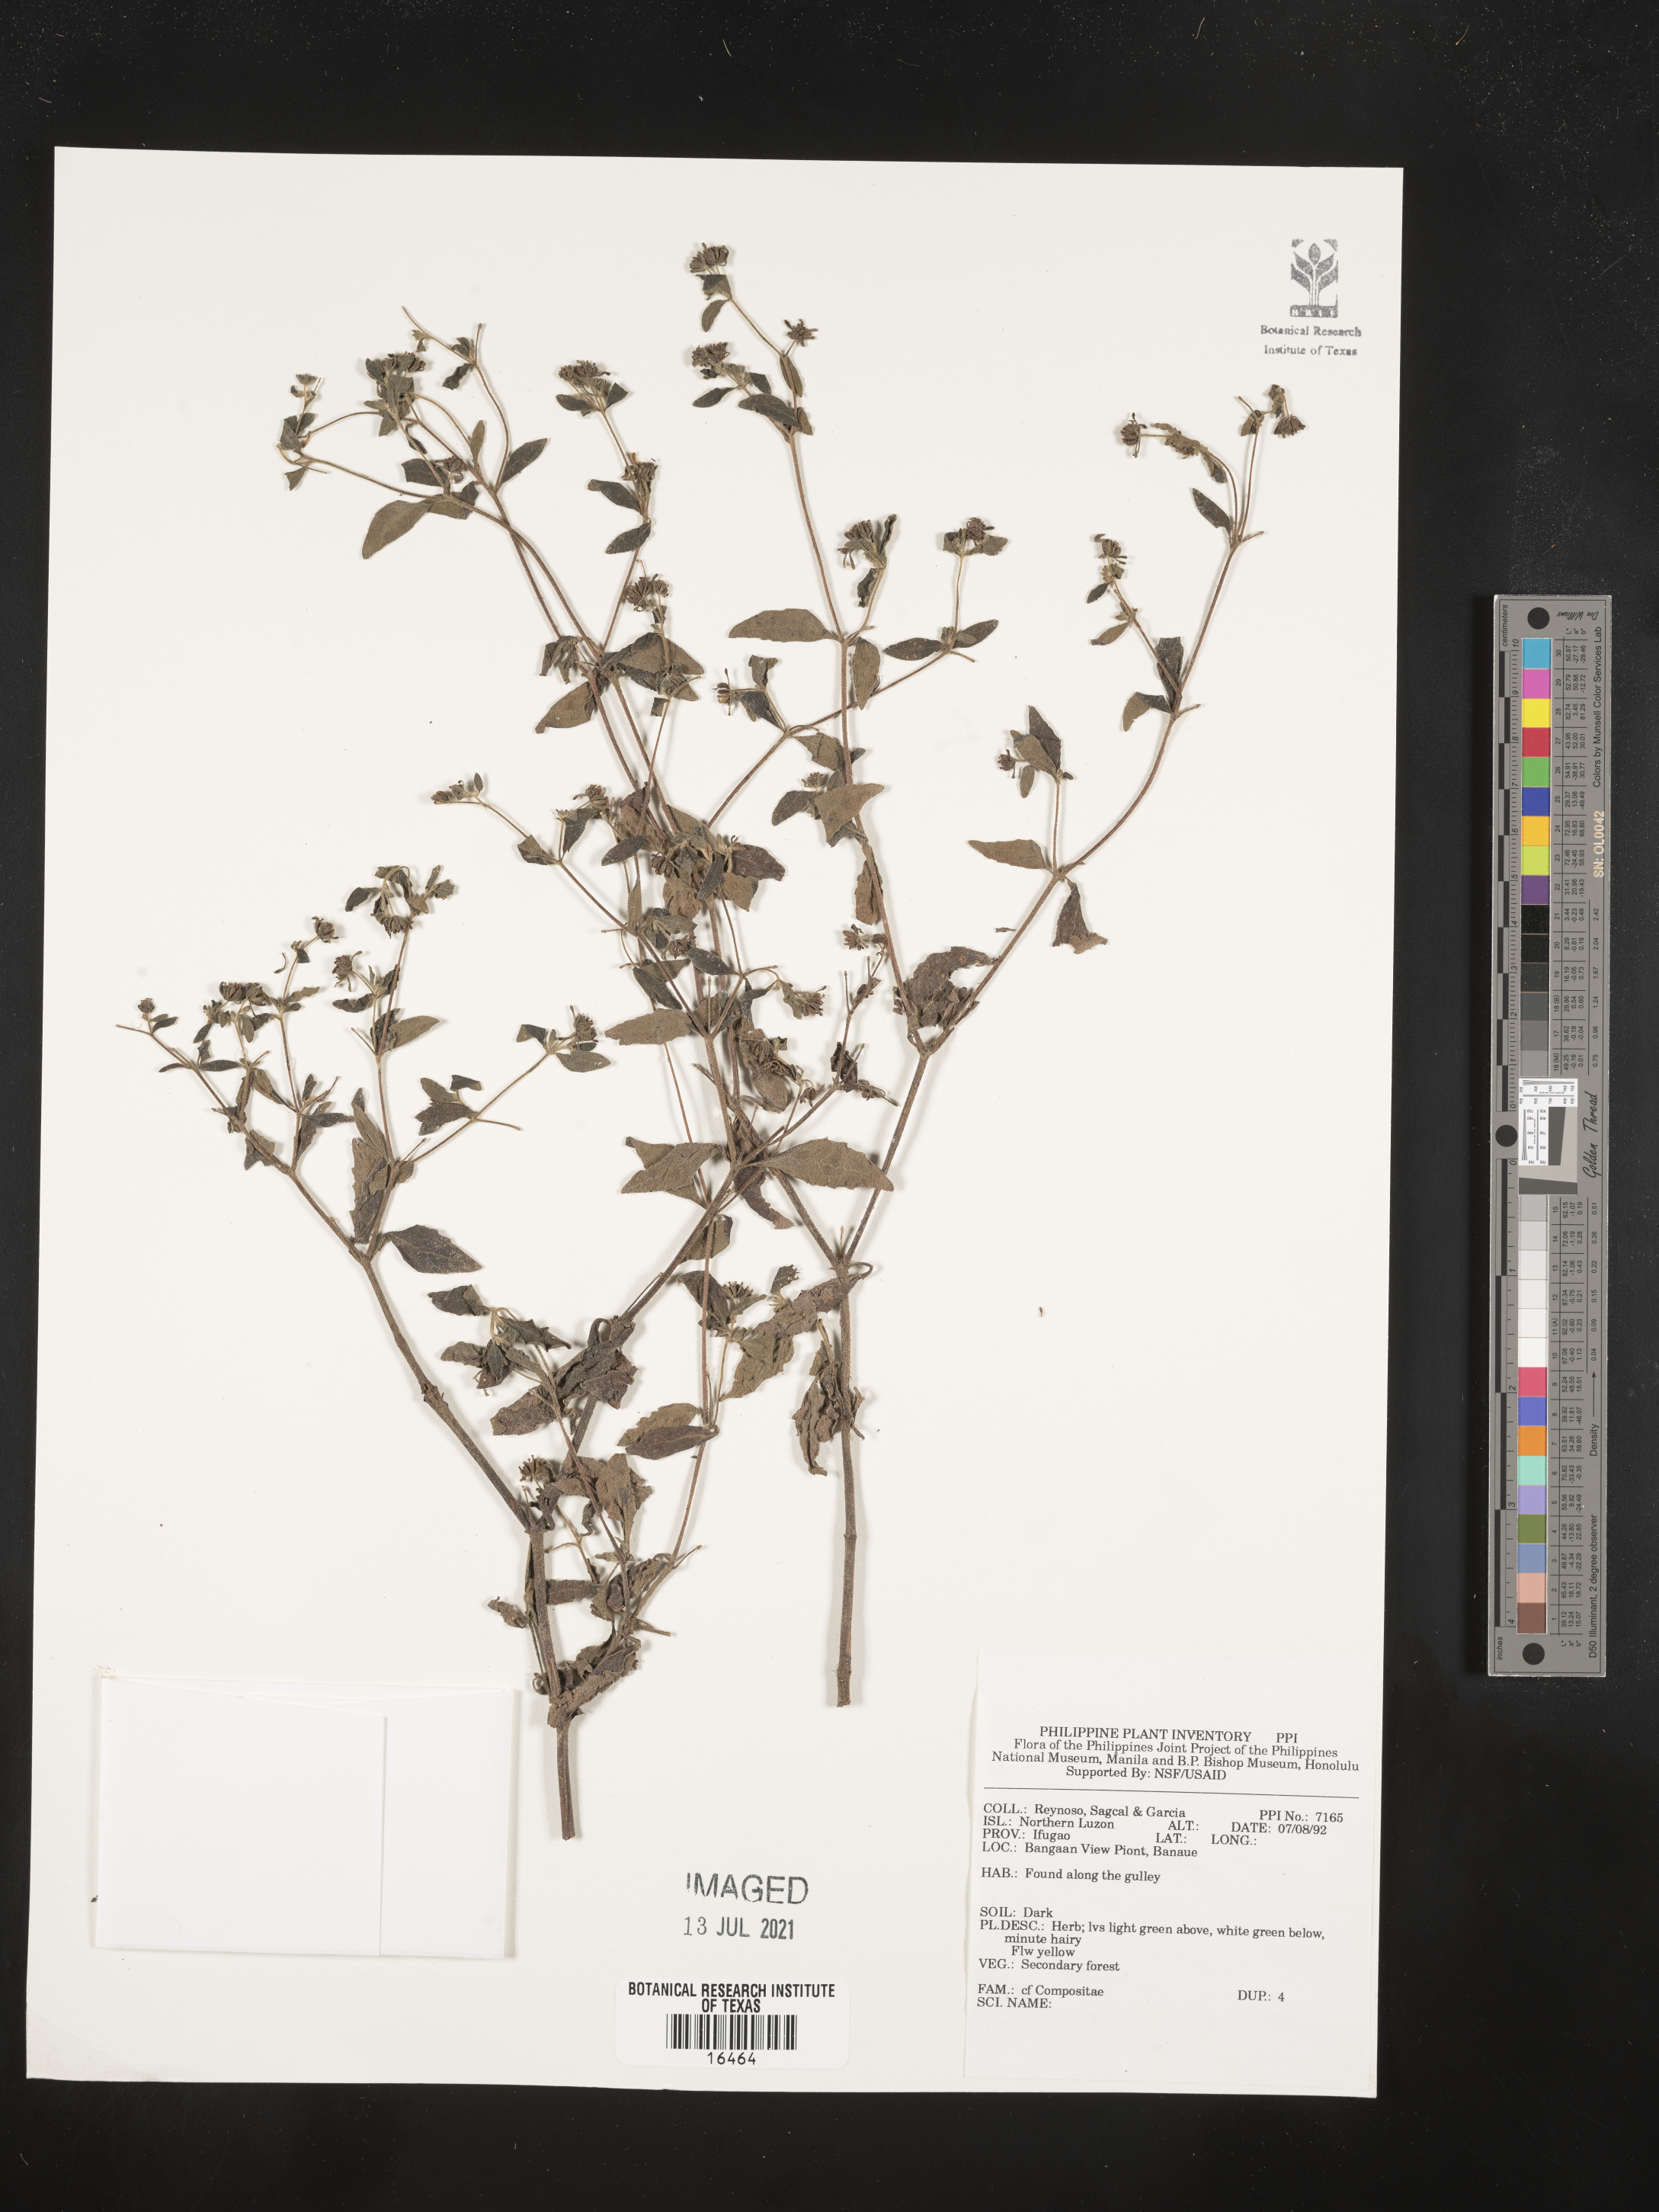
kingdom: Plantae
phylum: Tracheophyta
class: Magnoliopsida
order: Asterales
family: Asteraceae
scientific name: Asteraceae
